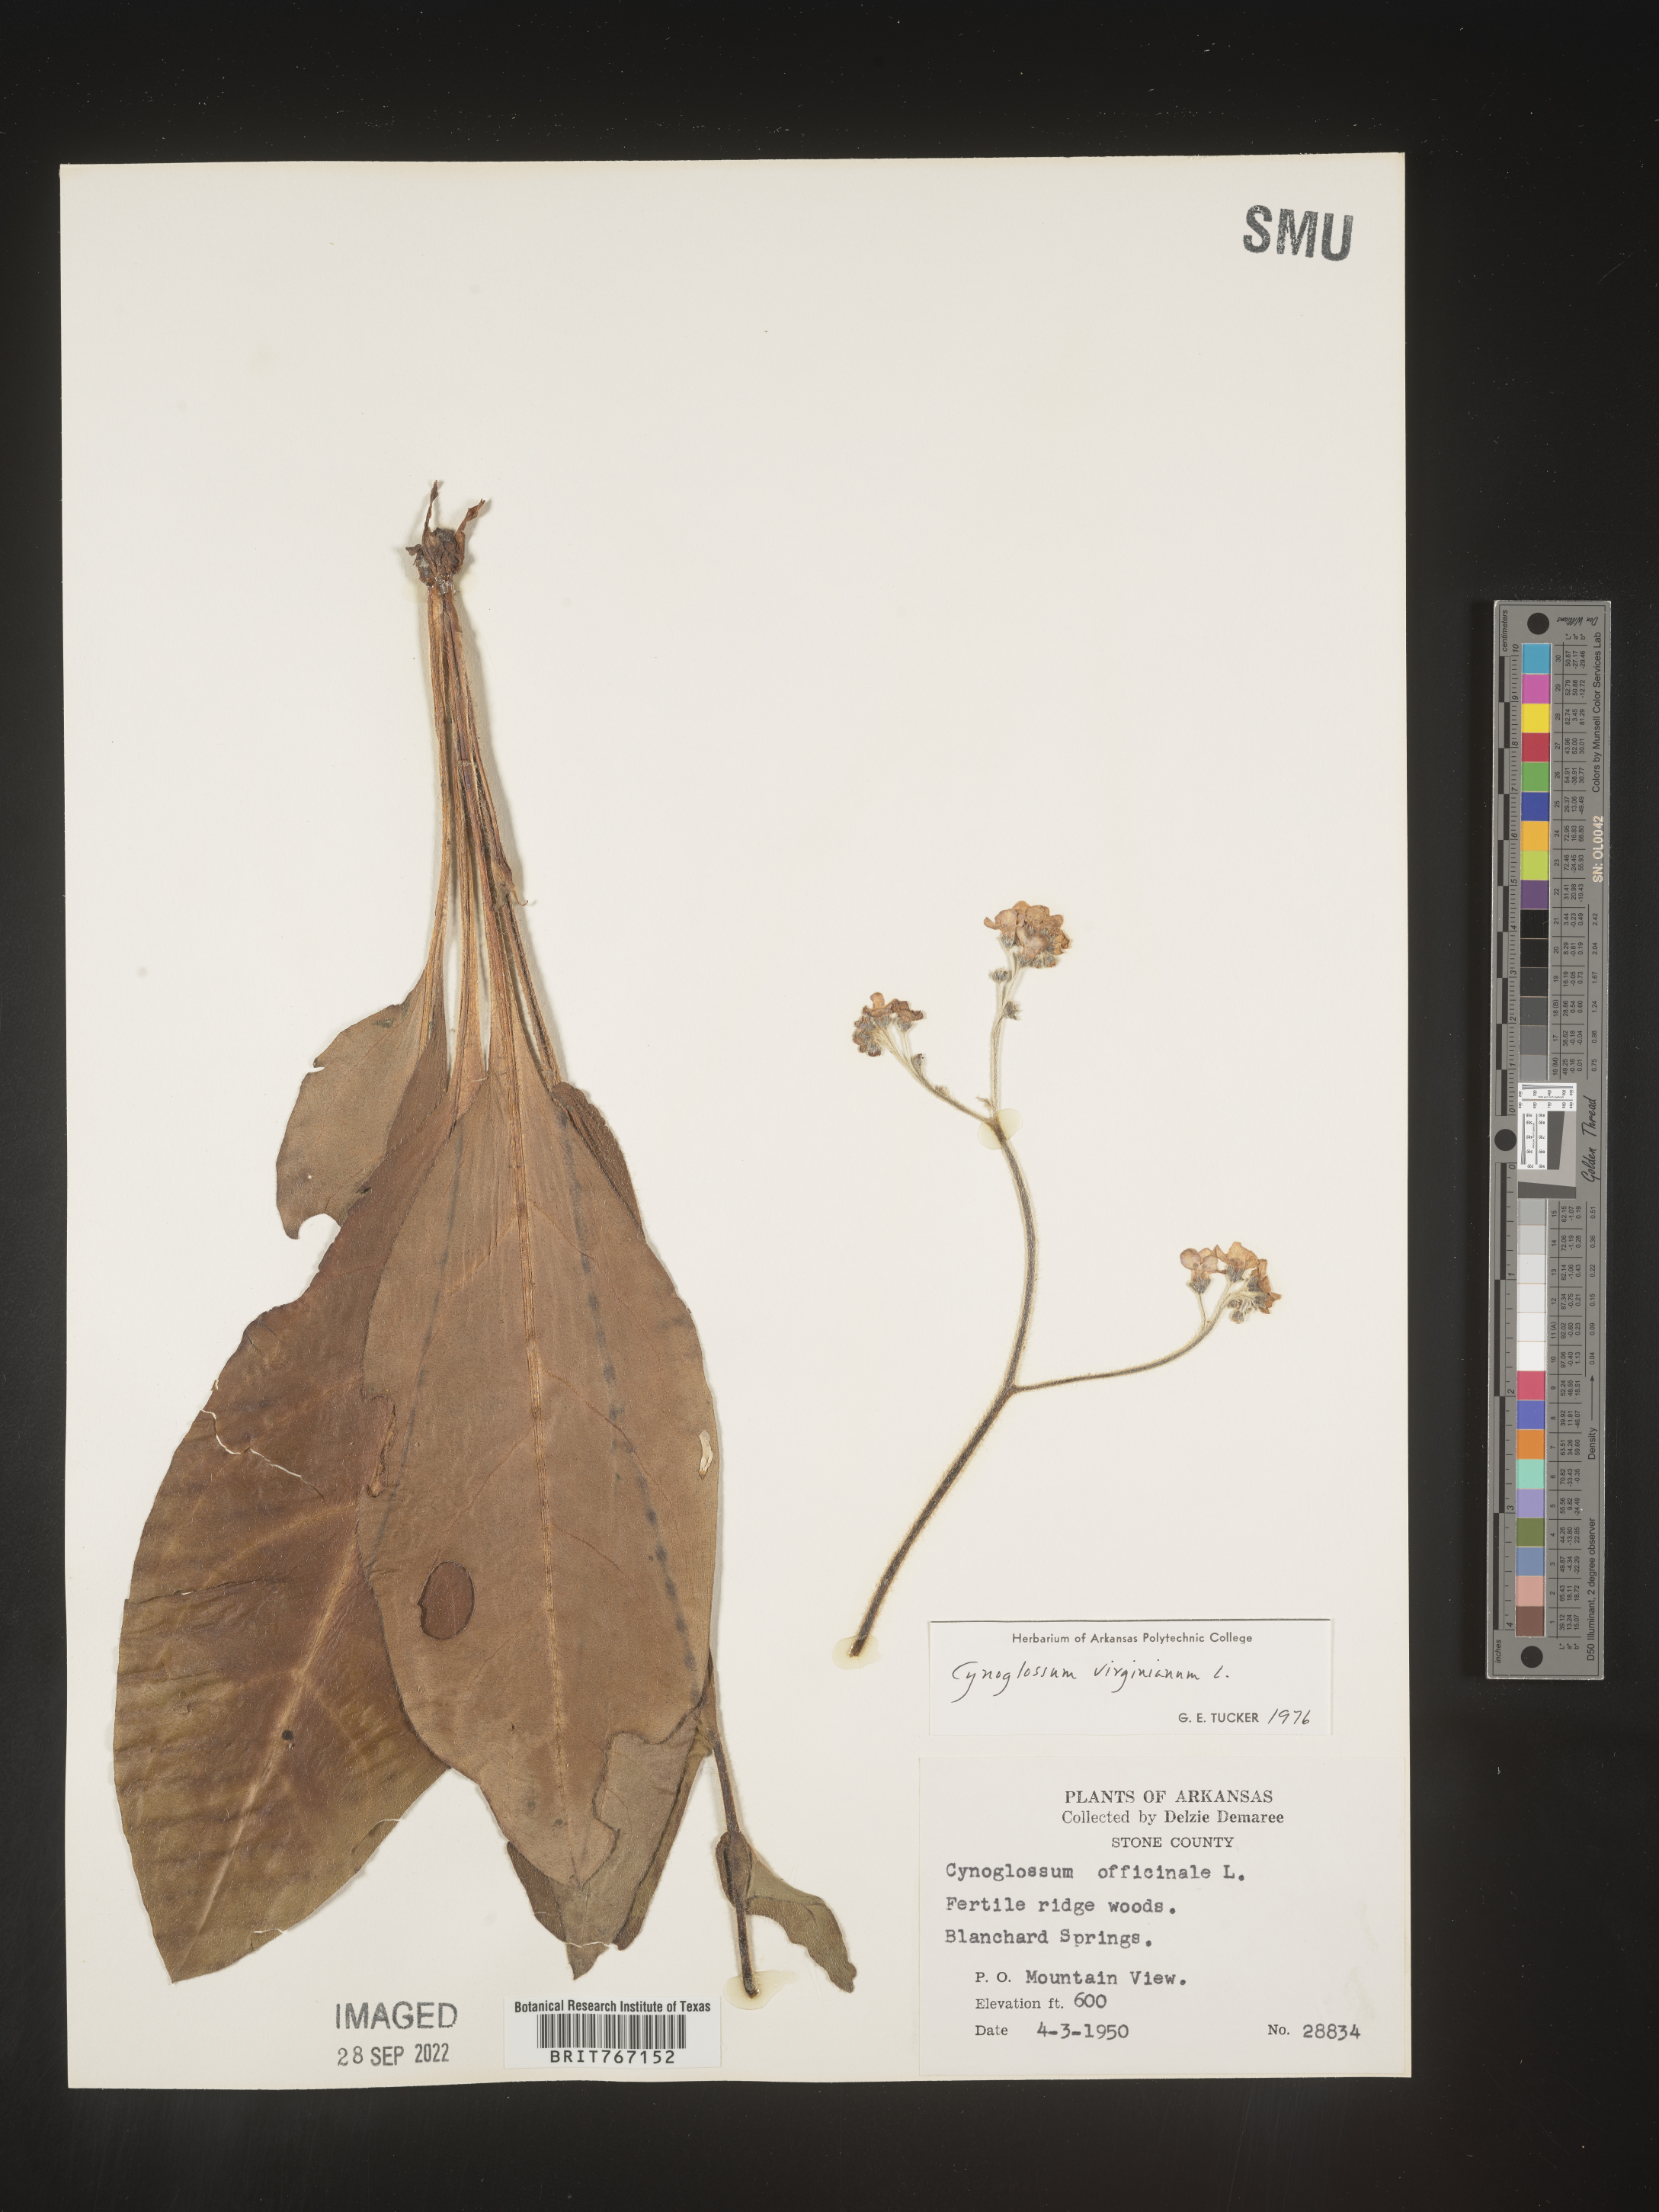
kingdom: Plantae
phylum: Tracheophyta
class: Magnoliopsida
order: Boraginales
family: Boraginaceae
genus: Andersonglossum
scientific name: Andersonglossum virginianum
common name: Wild comfrey
